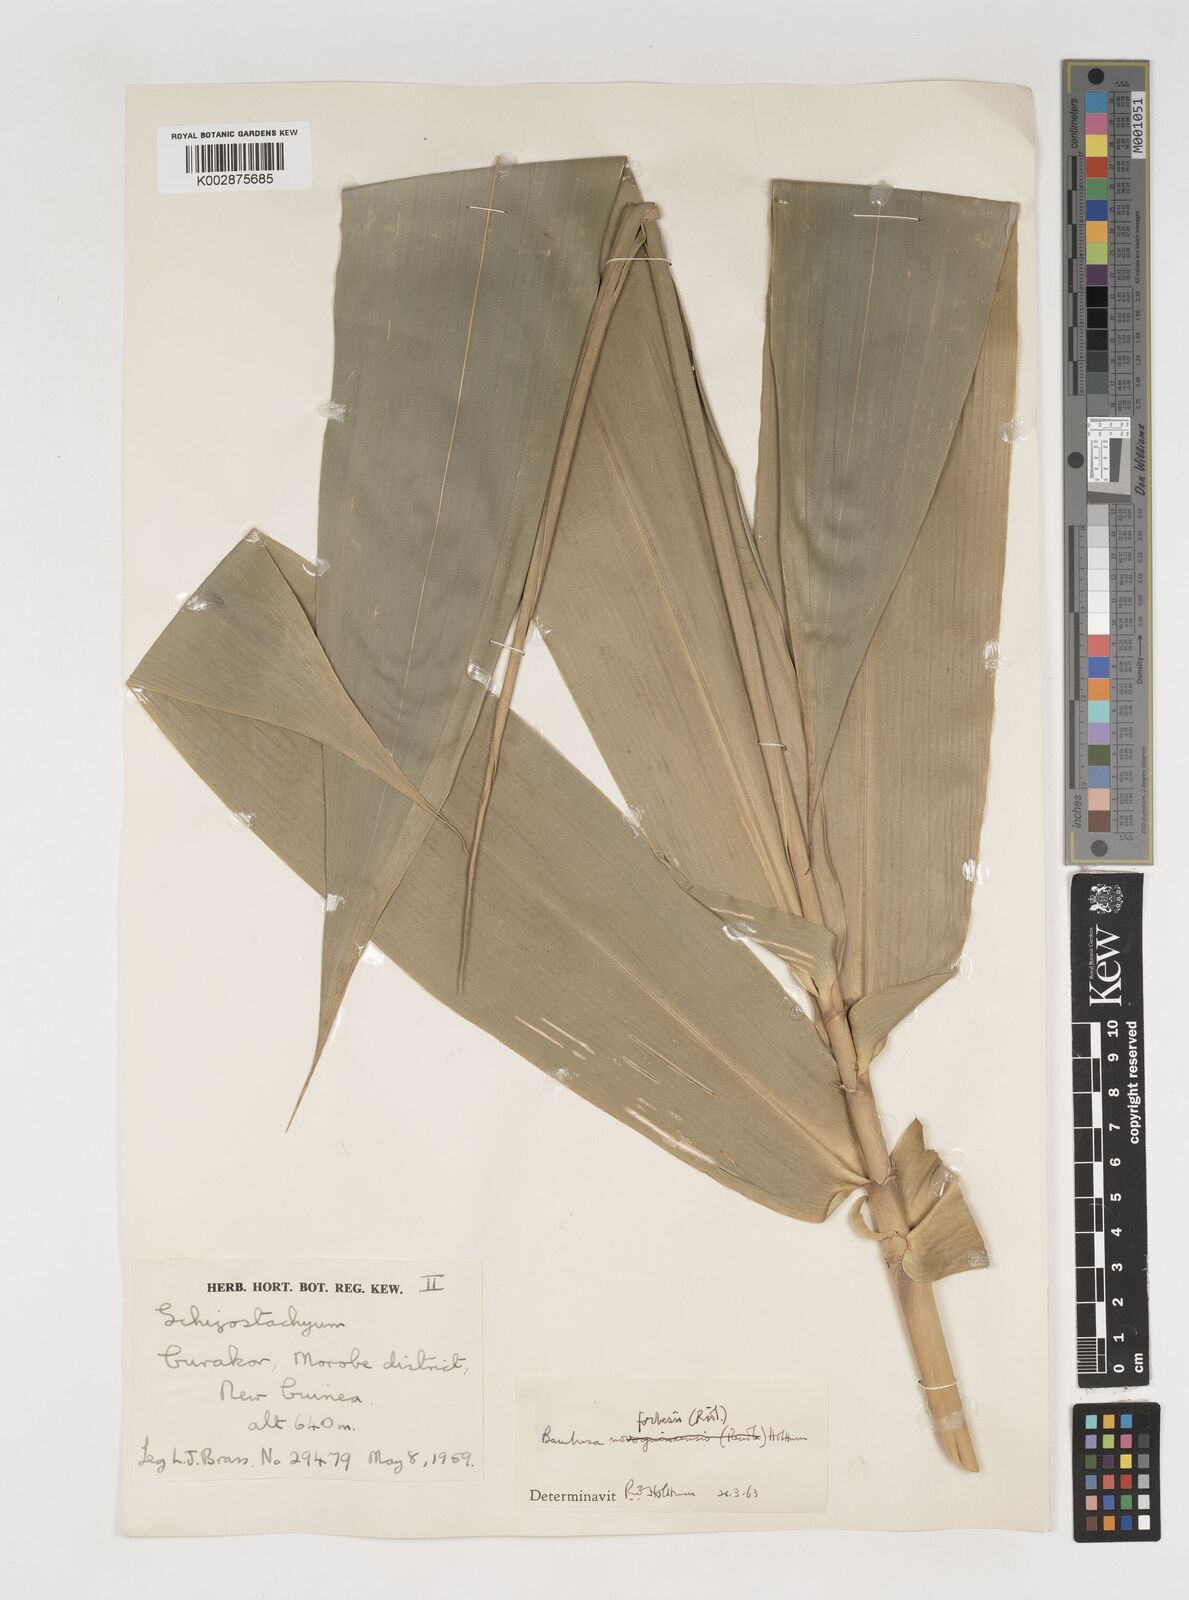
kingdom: Plantae
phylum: Tracheophyta
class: Liliopsida
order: Poales
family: Poaceae
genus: Neololeba
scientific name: Neololeba atra
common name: Cape bamboo
